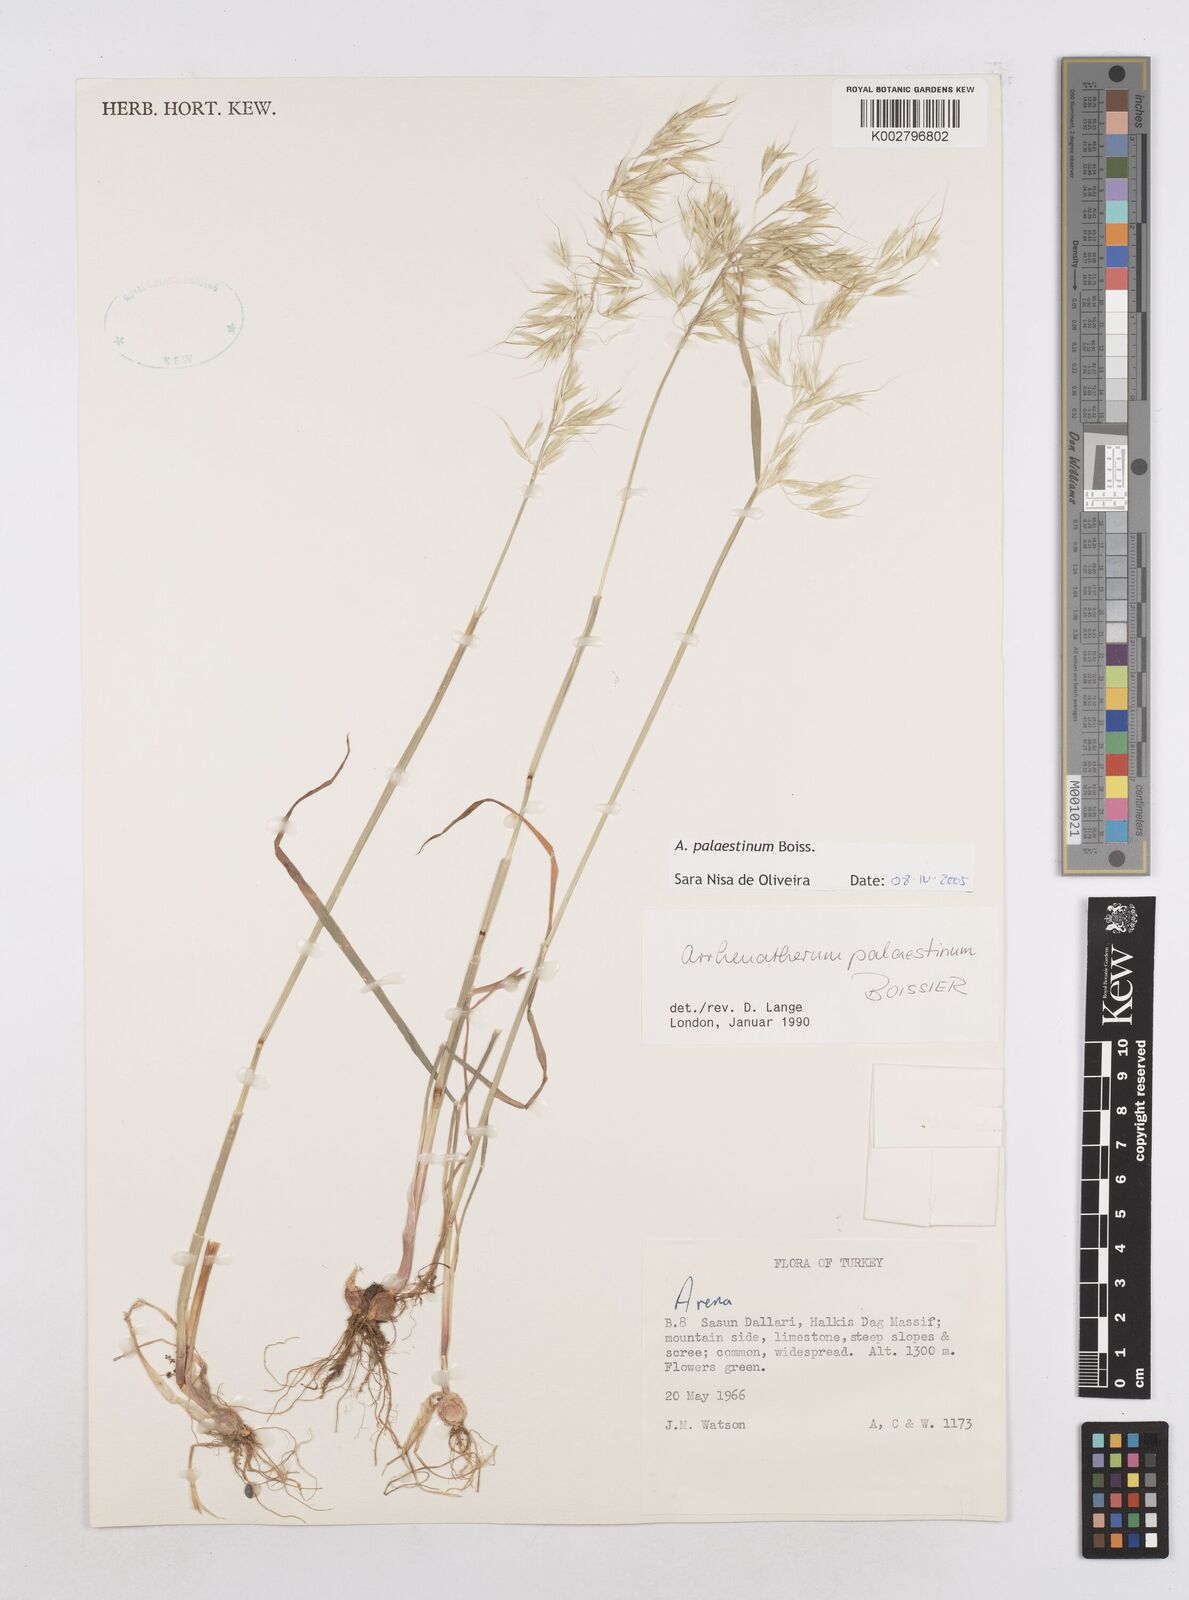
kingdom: Plantae
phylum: Tracheophyta
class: Liliopsida
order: Poales
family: Poaceae
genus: Arrhenatherum
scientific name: Arrhenatherum palaestinum
